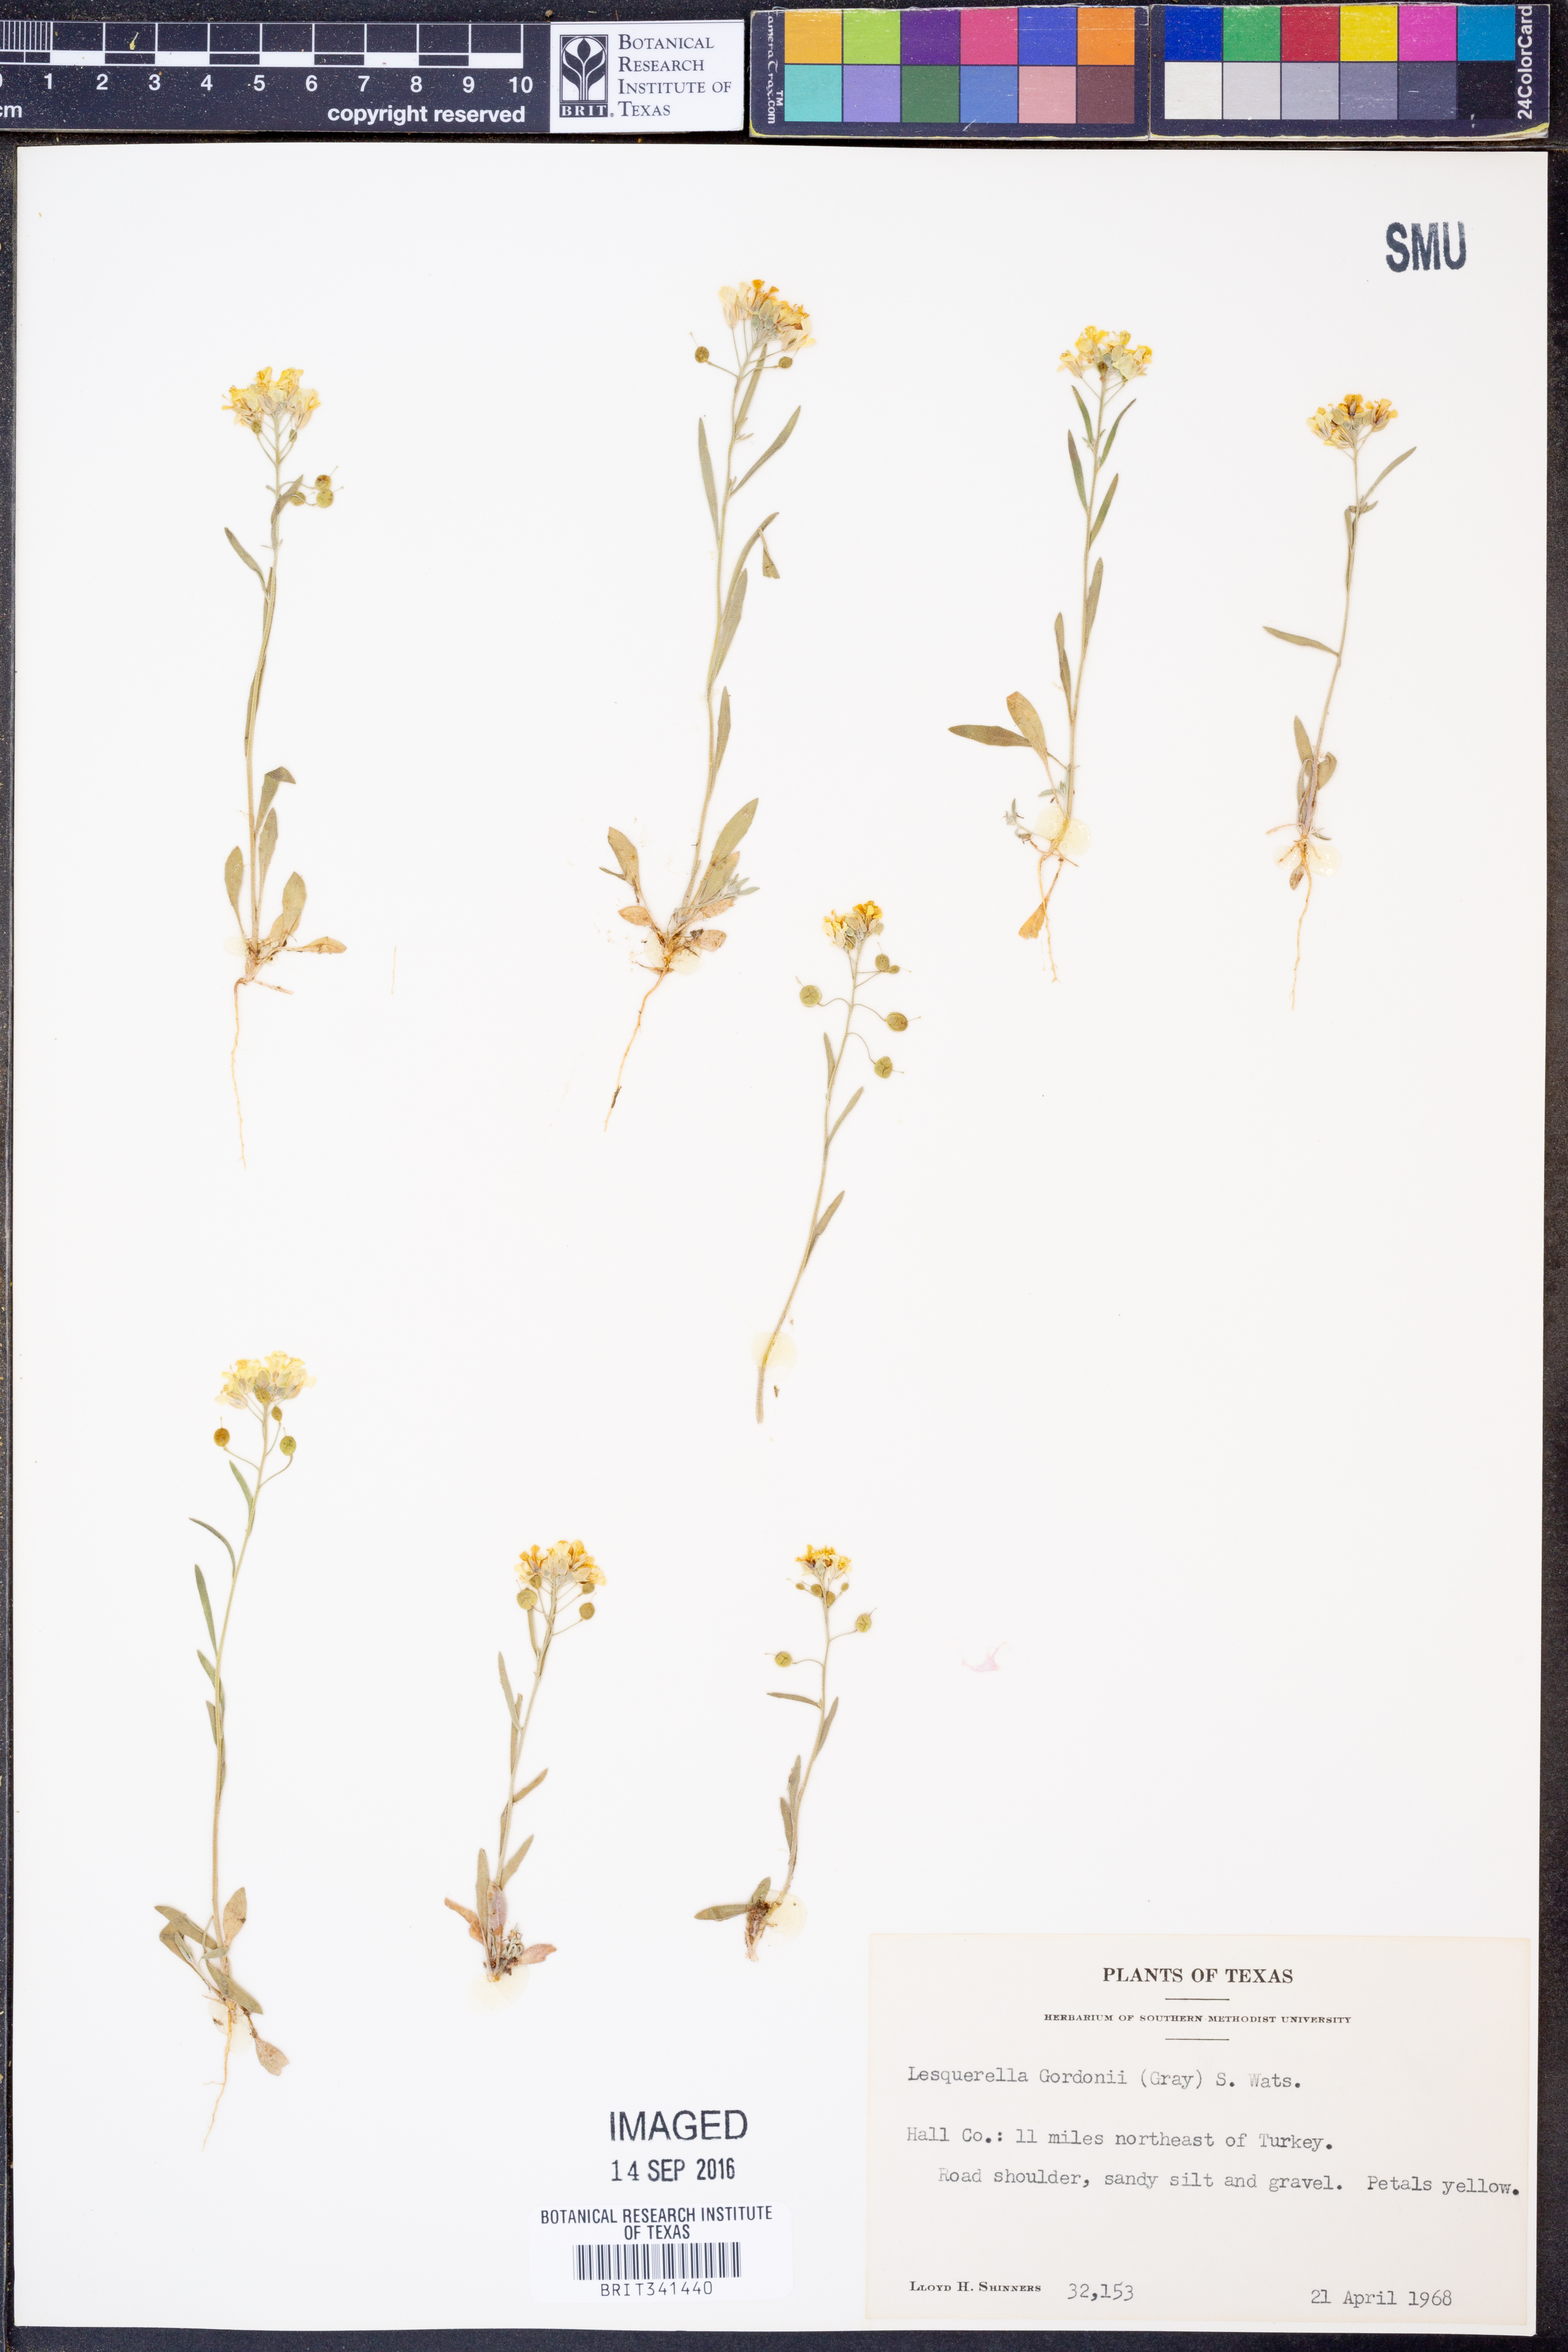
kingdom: Plantae
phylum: Tracheophyta
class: Magnoliopsida
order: Brassicales
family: Brassicaceae
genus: Physaria
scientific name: Physaria gordonii
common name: Gordon's bladderpod
